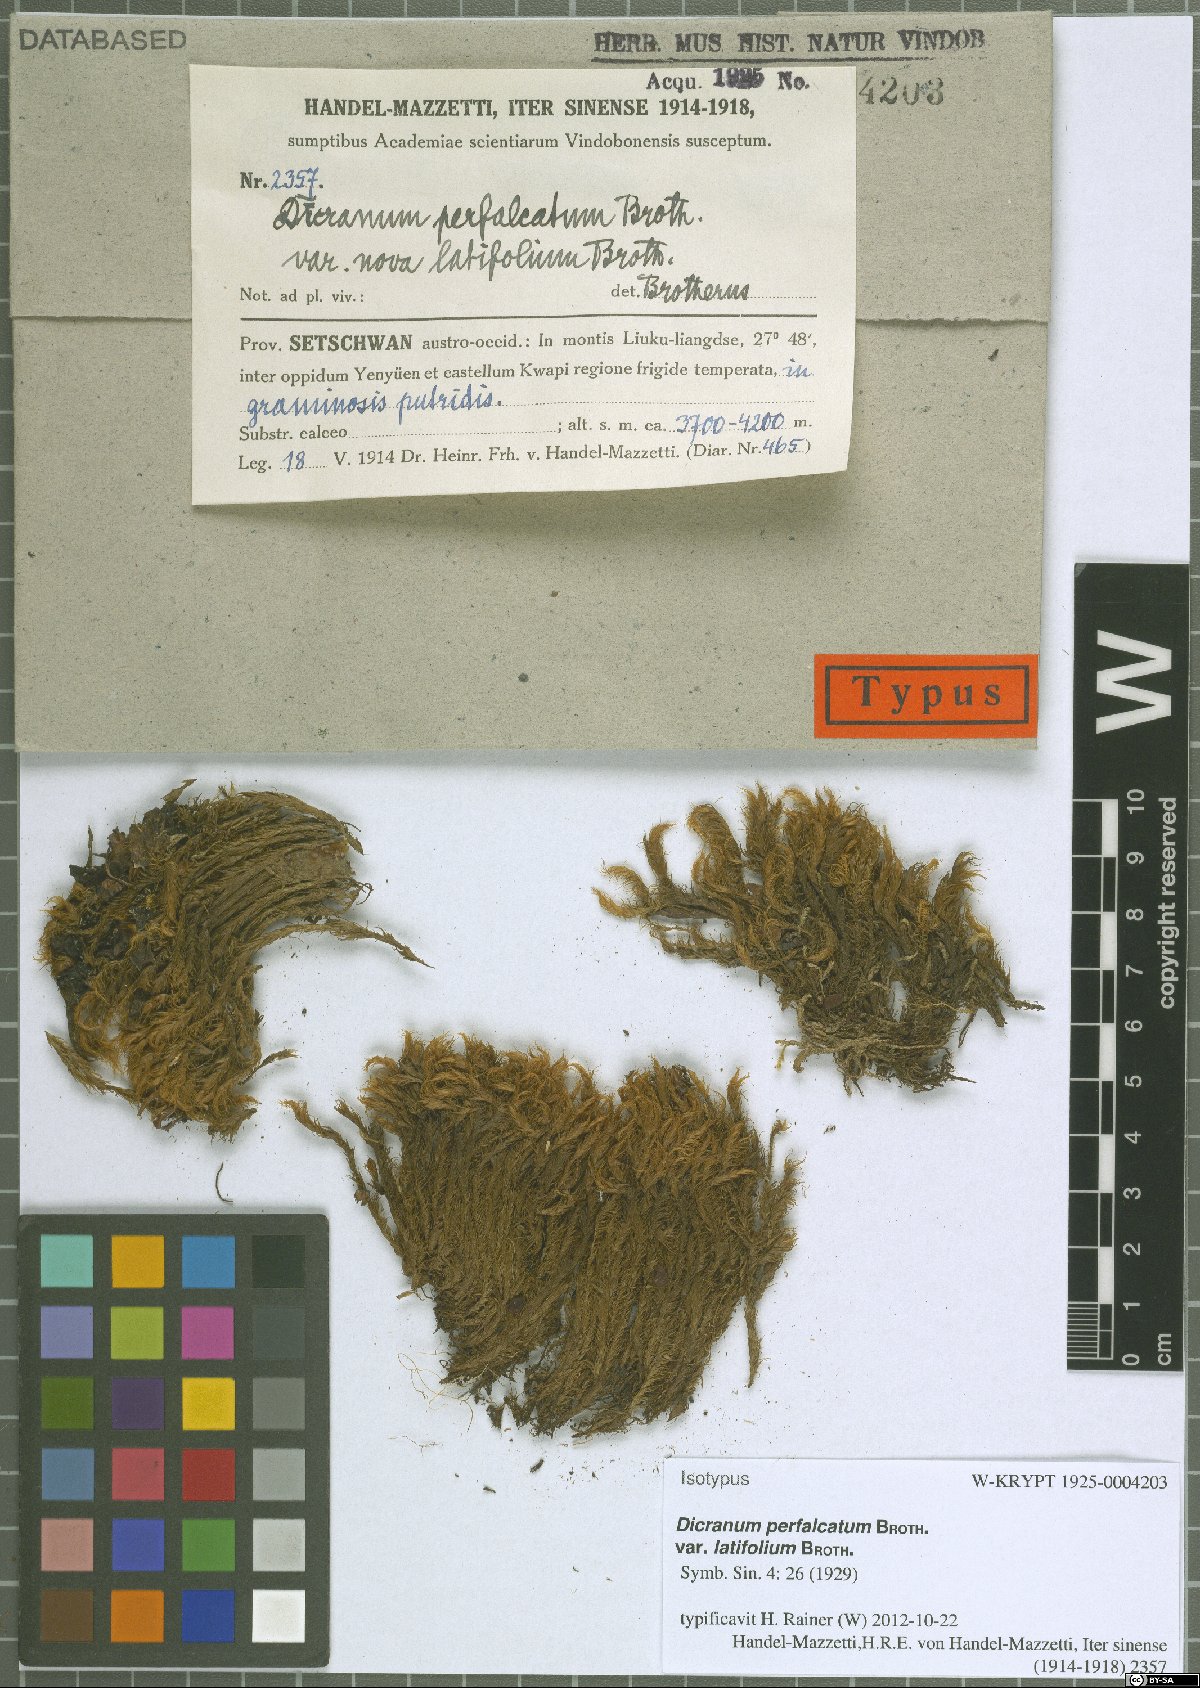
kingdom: Plantae
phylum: Bryophyta
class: Bryopsida
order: Dicranales
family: Dicranaceae
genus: Dicranum
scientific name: Dicranum drummondii
